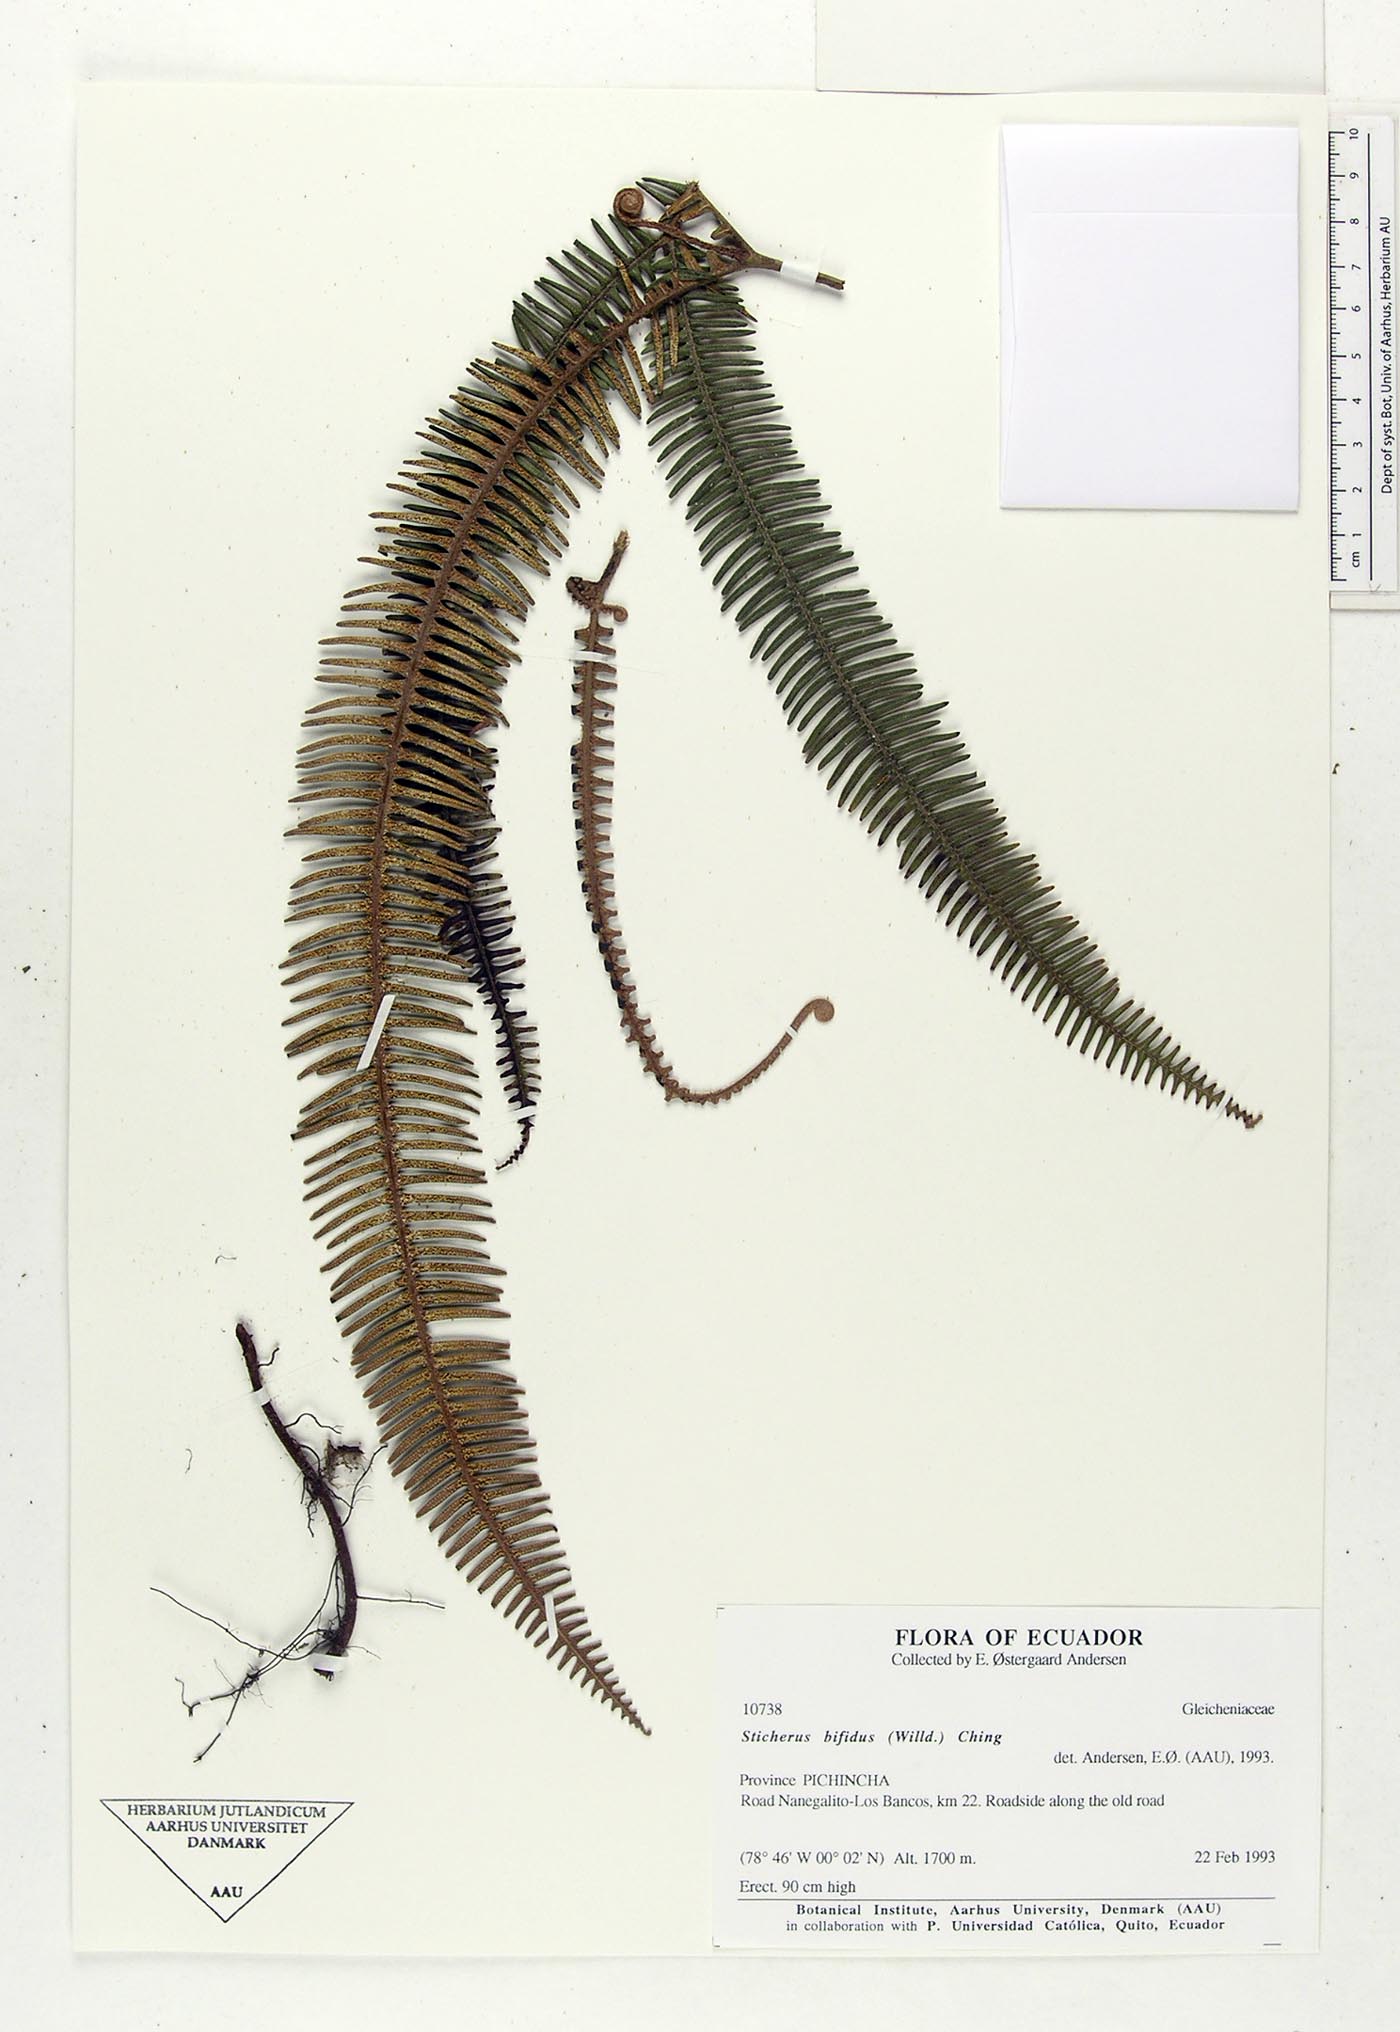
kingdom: Plantae
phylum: Tracheophyta
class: Polypodiopsida
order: Gleicheniales
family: Gleicheniaceae
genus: Sticherus
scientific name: Sticherus bifidus
